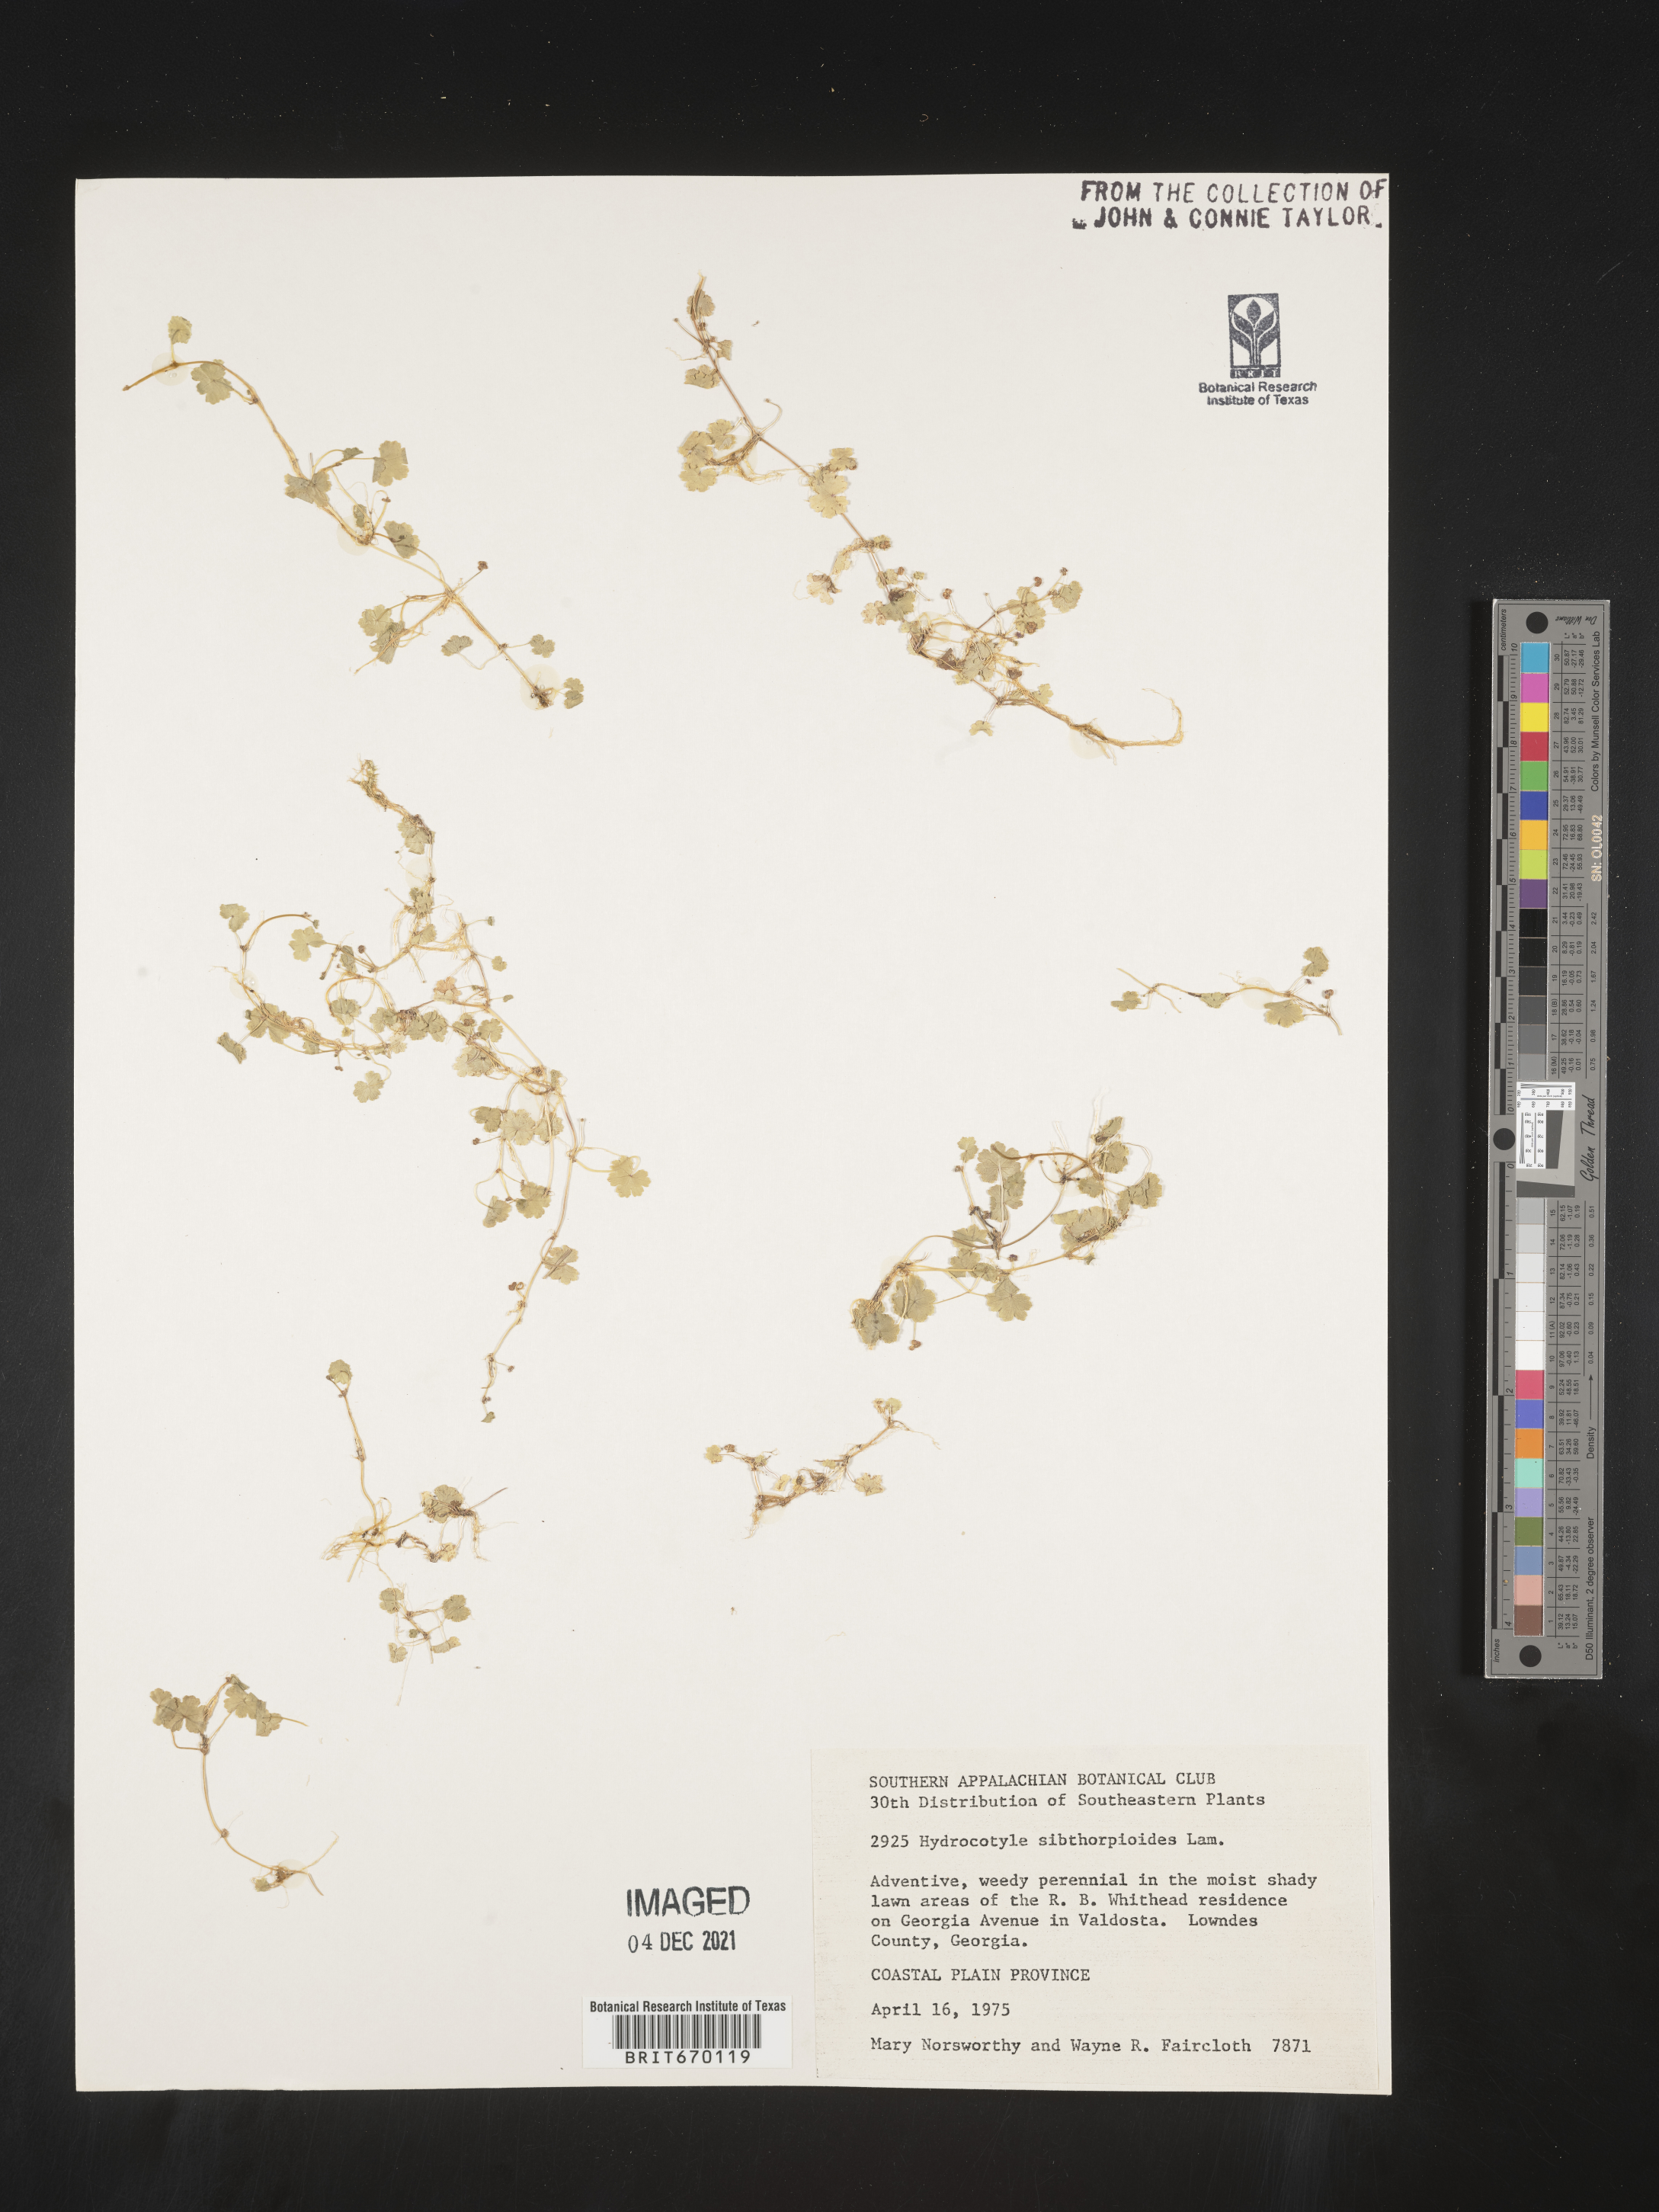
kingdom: Plantae
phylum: Tracheophyta
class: Magnoliopsida
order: Apiales
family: Araliaceae
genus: Hydrocotyle
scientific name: Hydrocotyle sibthorpioides
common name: Lawn marshpennywort
